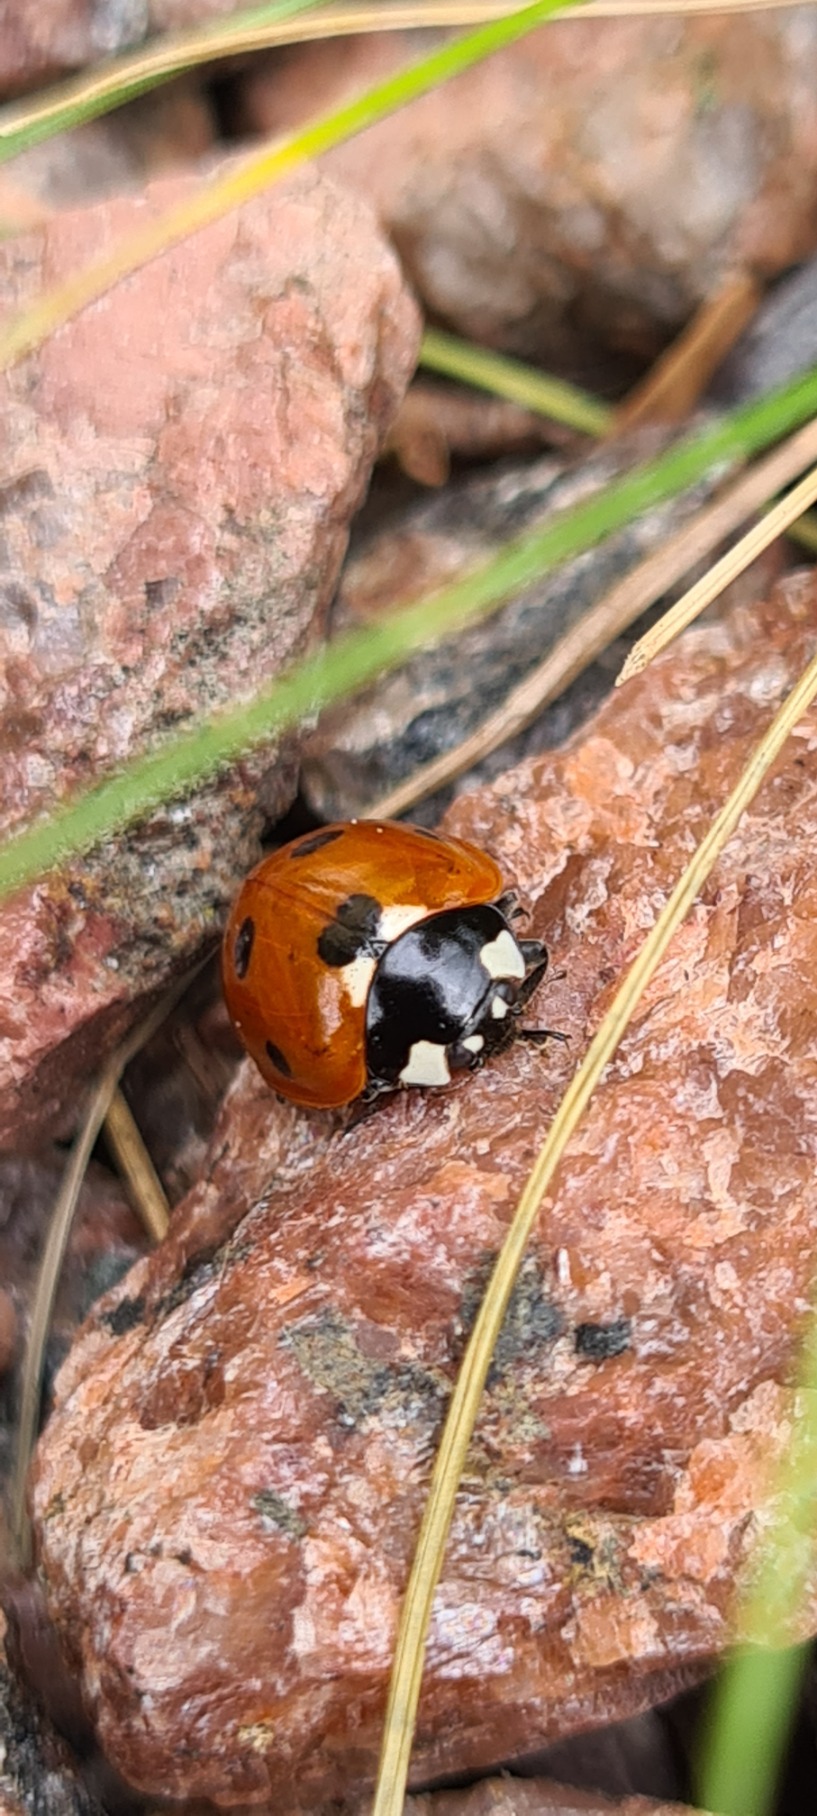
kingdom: Animalia
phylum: Arthropoda
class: Insecta
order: Coleoptera
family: Coccinellidae
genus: Coccinella
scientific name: Coccinella septempunctata
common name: Syvplettet mariehøne
